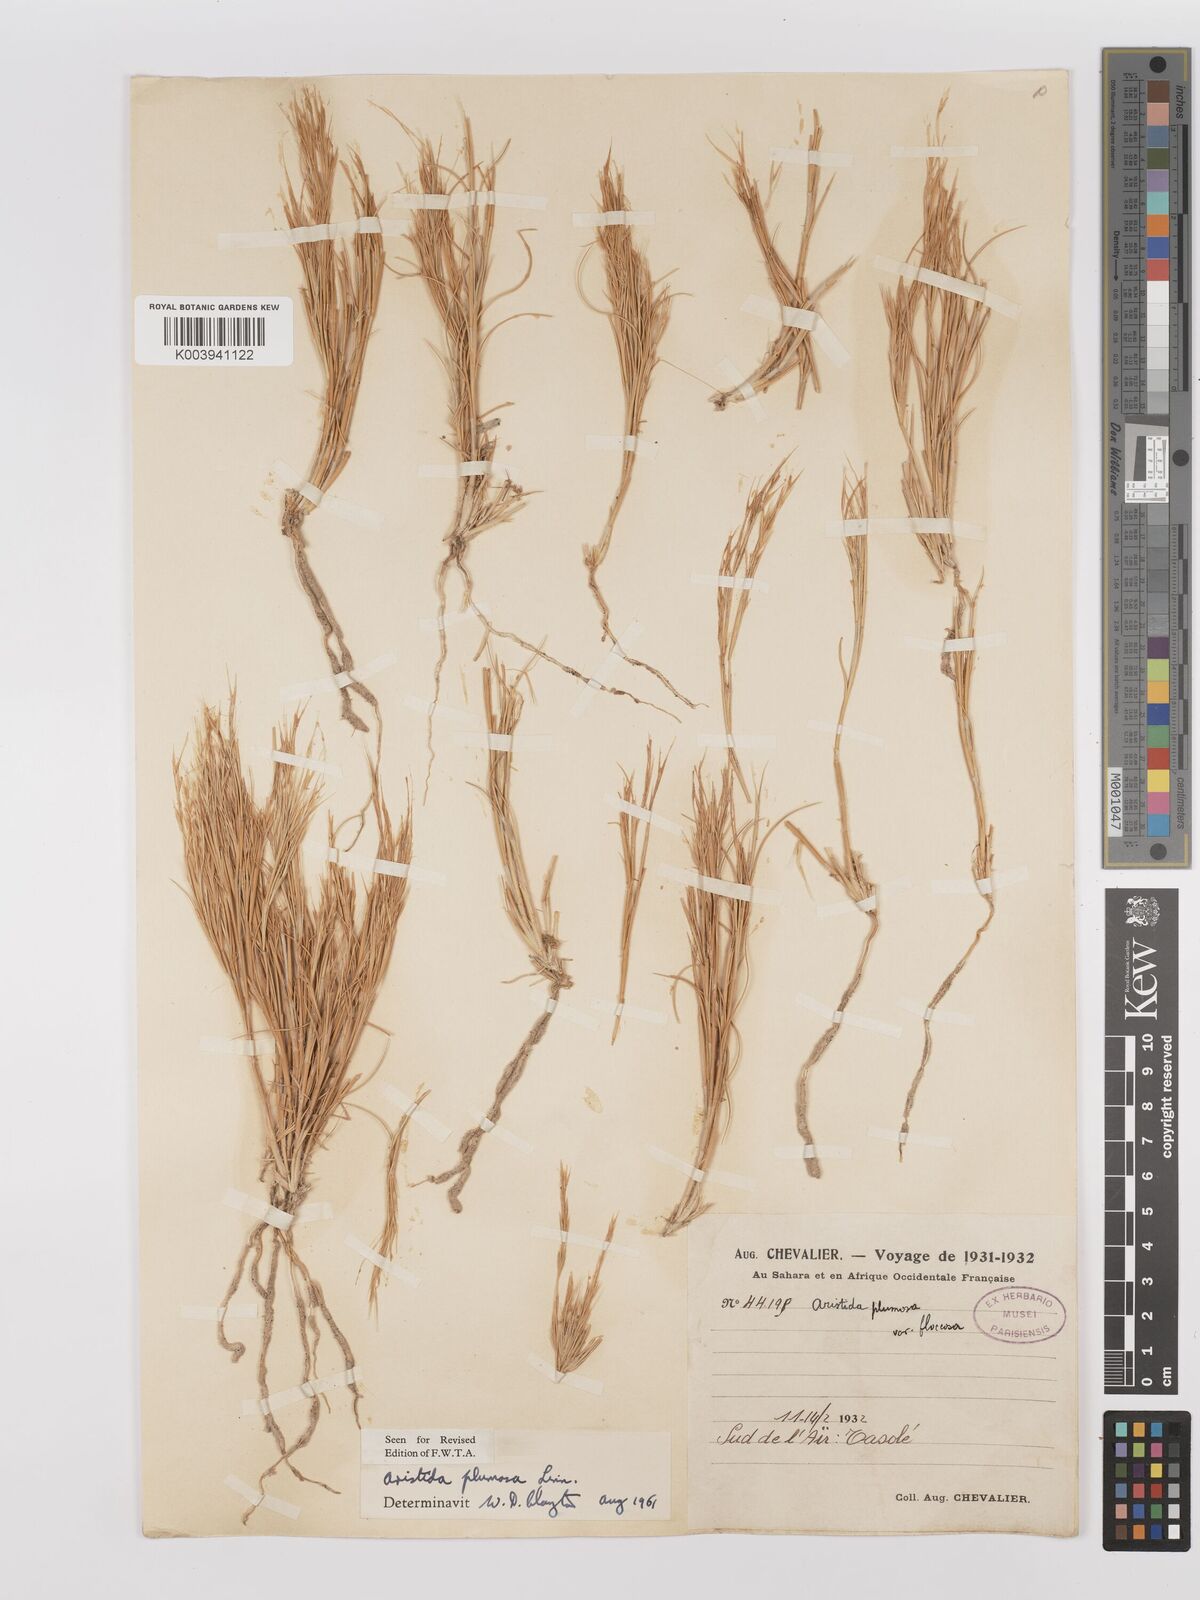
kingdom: Plantae
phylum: Tracheophyta
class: Liliopsida
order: Poales
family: Poaceae
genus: Stipagrostis
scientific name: Stipagrostis plumosa
